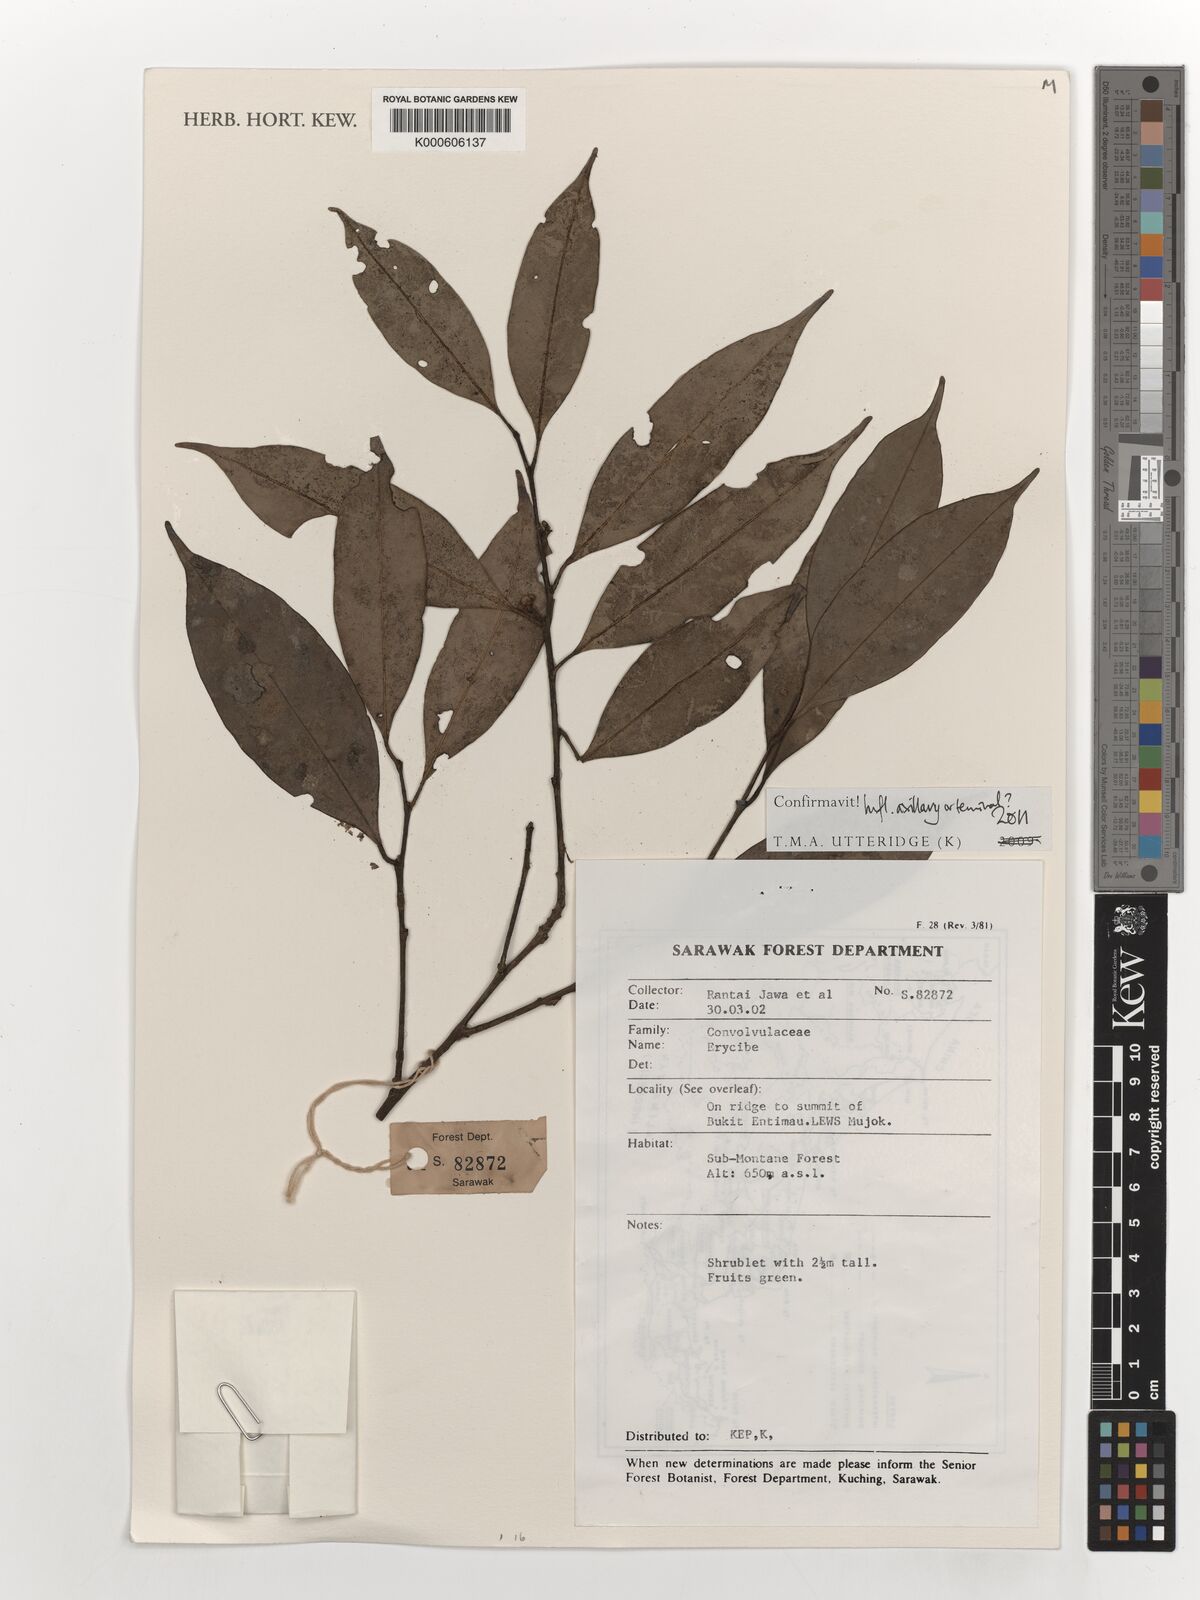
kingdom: Plantae
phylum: Tracheophyta
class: Magnoliopsida
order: Solanales
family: Convolvulaceae
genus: Erycibe
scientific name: Erycibe
